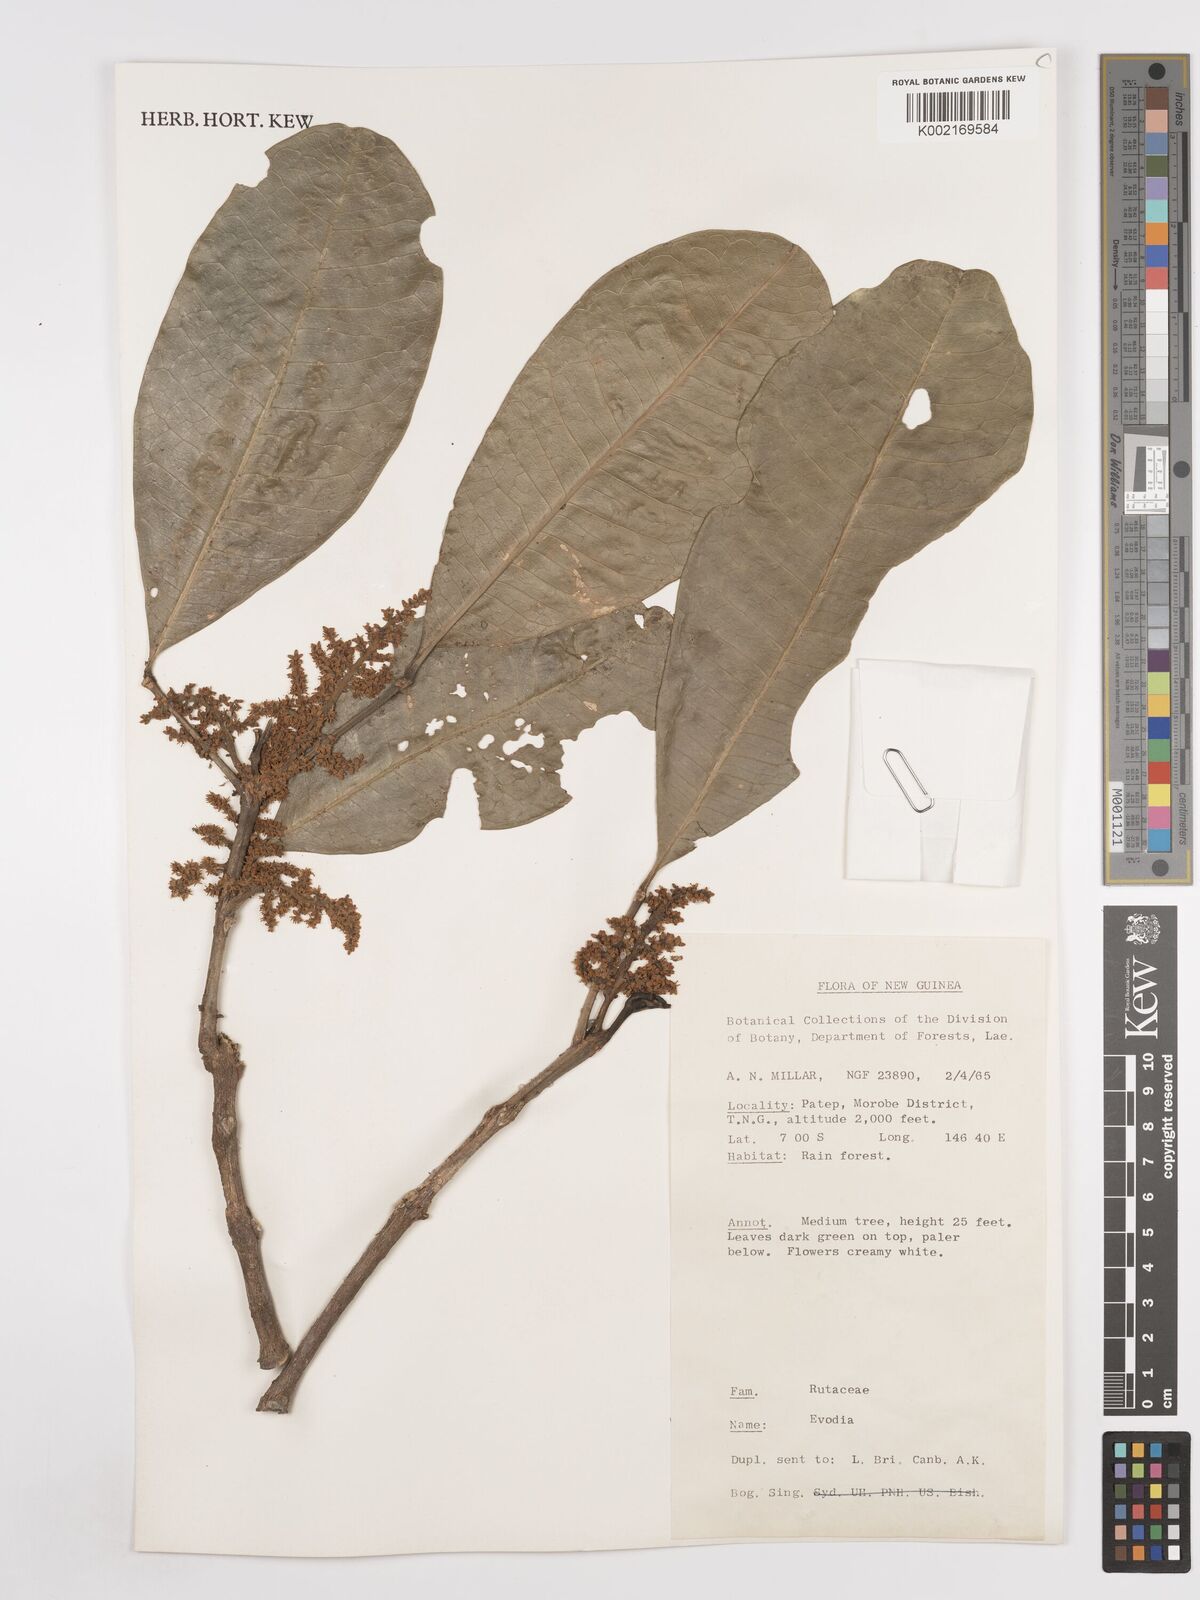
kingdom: Plantae
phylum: Tracheophyta
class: Magnoliopsida
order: Sapindales
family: Rutaceae
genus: Euodia
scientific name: Euodia
